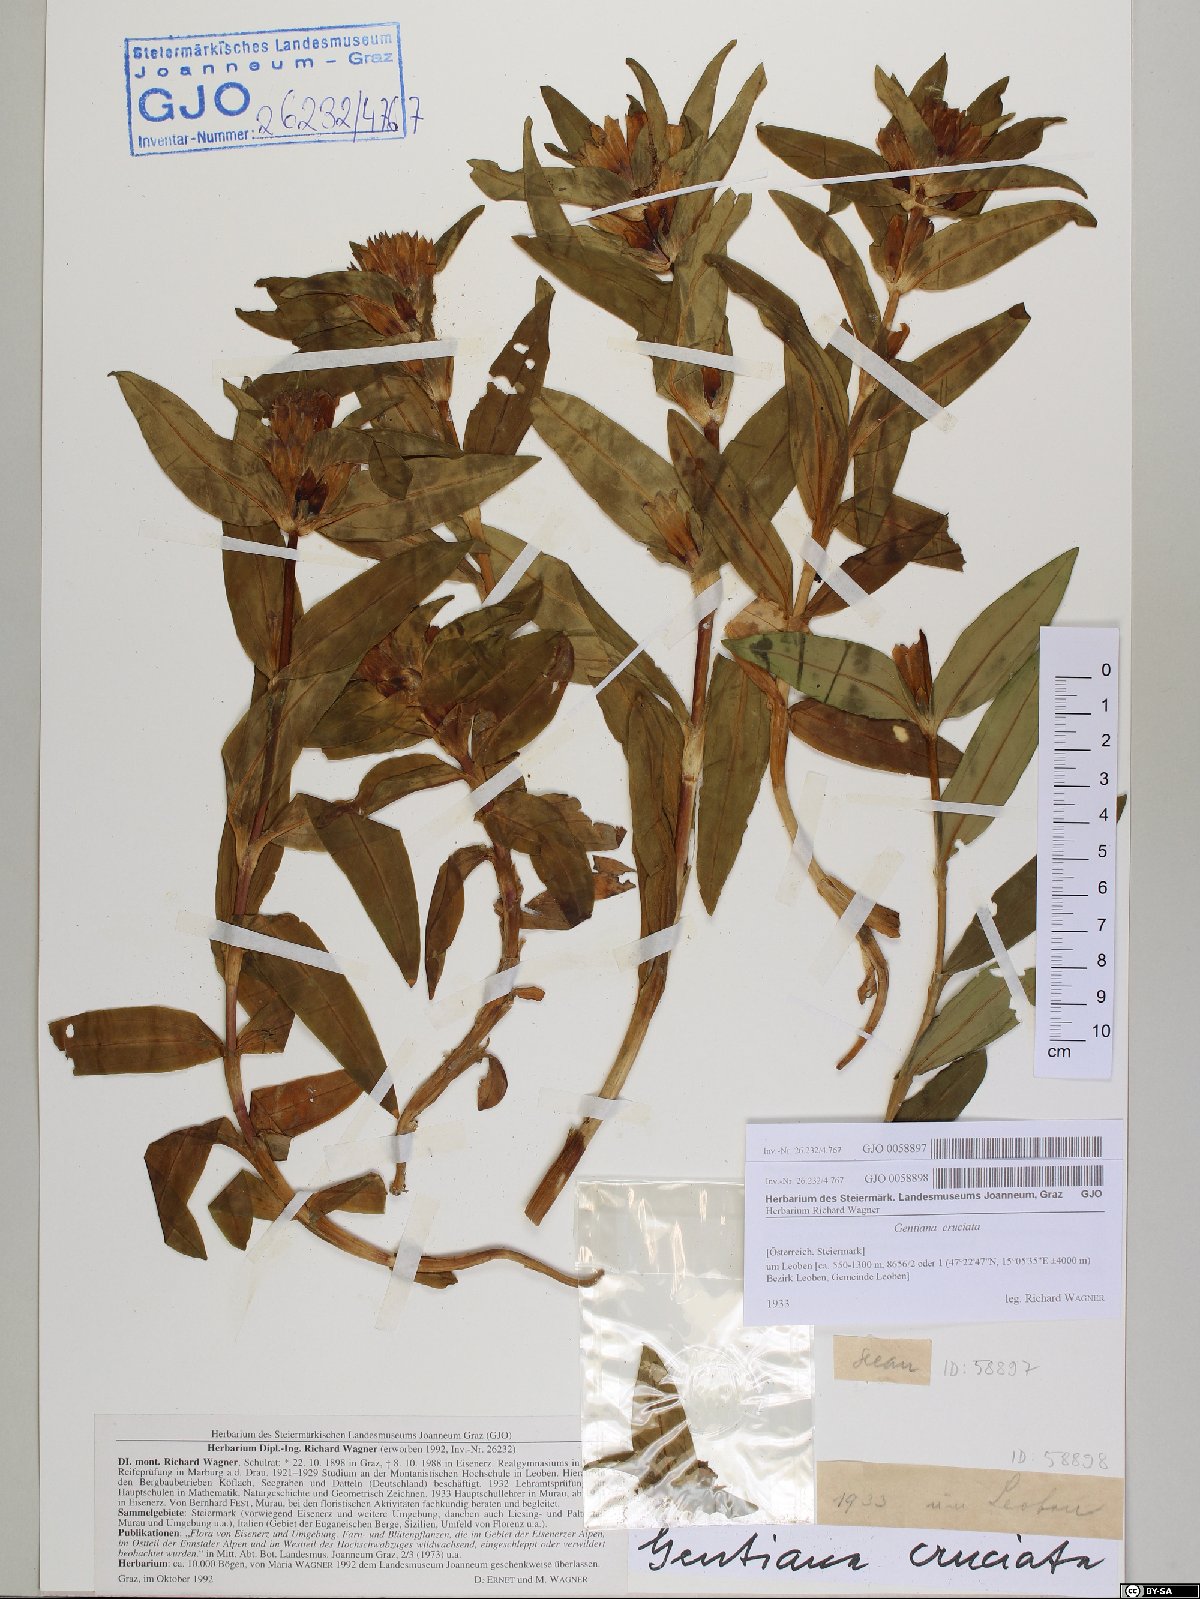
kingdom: Plantae
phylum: Tracheophyta
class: Magnoliopsida
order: Gentianales
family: Gentianaceae
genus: Gentiana
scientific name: Gentiana cruciata
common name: Cross gentian
